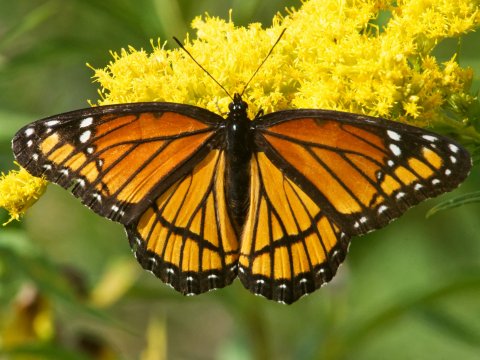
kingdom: Animalia
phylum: Arthropoda
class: Insecta
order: Lepidoptera
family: Nymphalidae
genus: Limenitis
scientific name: Limenitis archippus
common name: Viceroy
